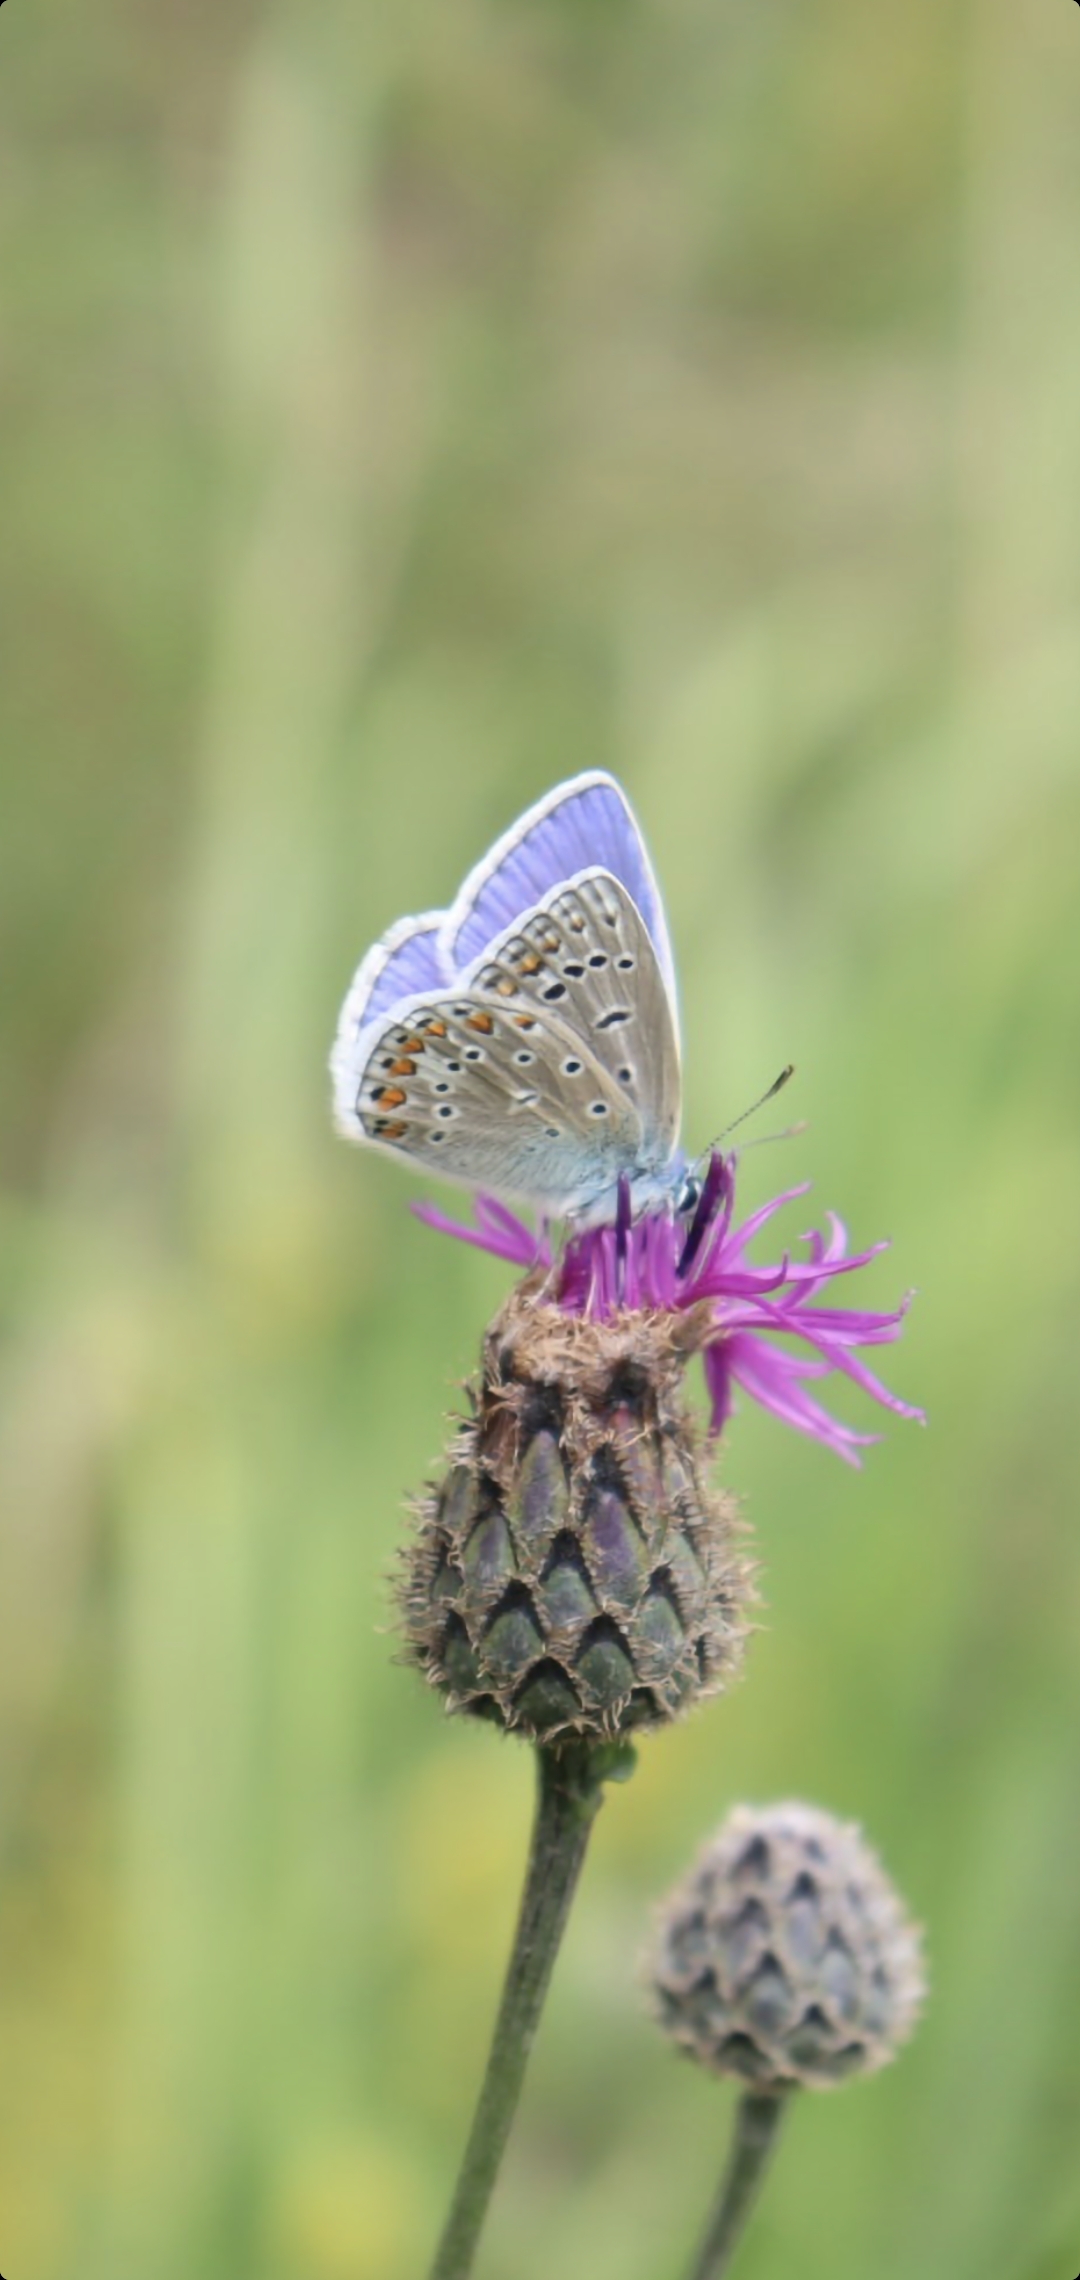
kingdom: Animalia
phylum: Arthropoda
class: Insecta
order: Lepidoptera
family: Lycaenidae
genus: Polyommatus
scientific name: Polyommatus icarus
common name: Almindelig blåfugl
